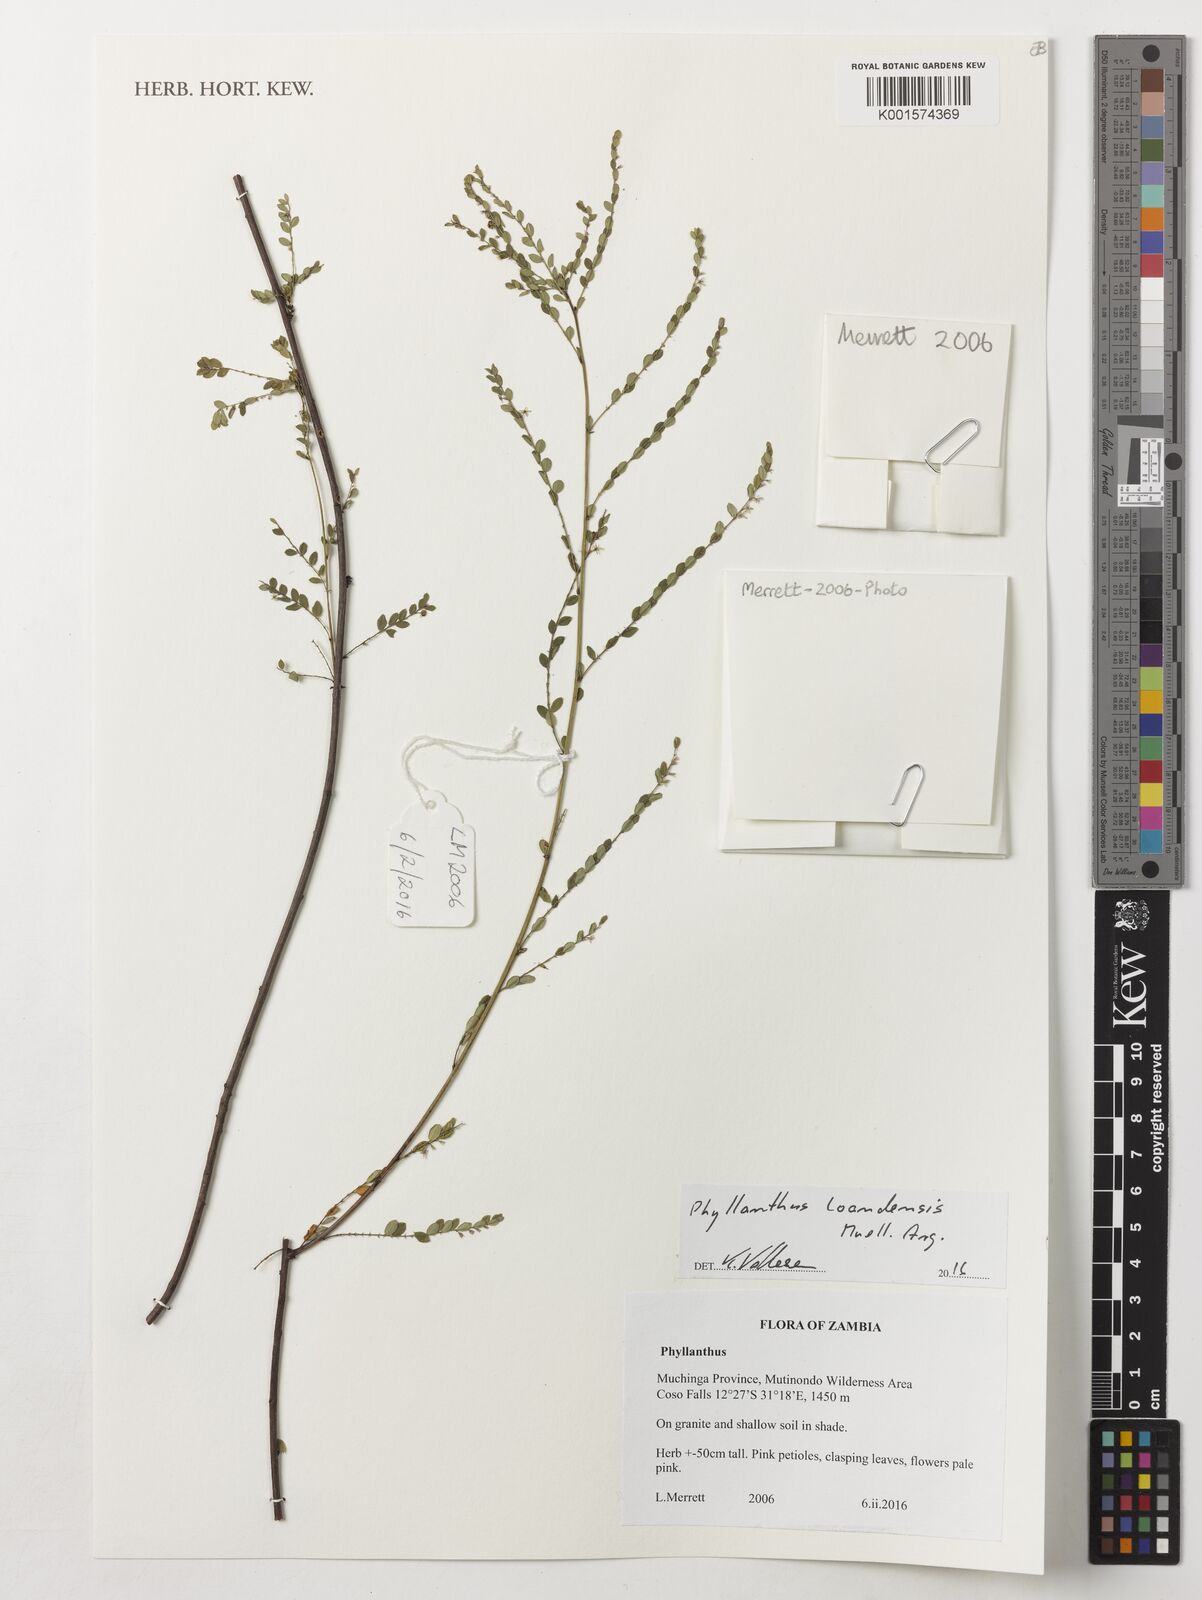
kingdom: Plantae
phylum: Tracheophyta
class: Magnoliopsida
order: Malpighiales
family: Phyllanthaceae
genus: Phyllanthus
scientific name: Phyllanthus loandensis
